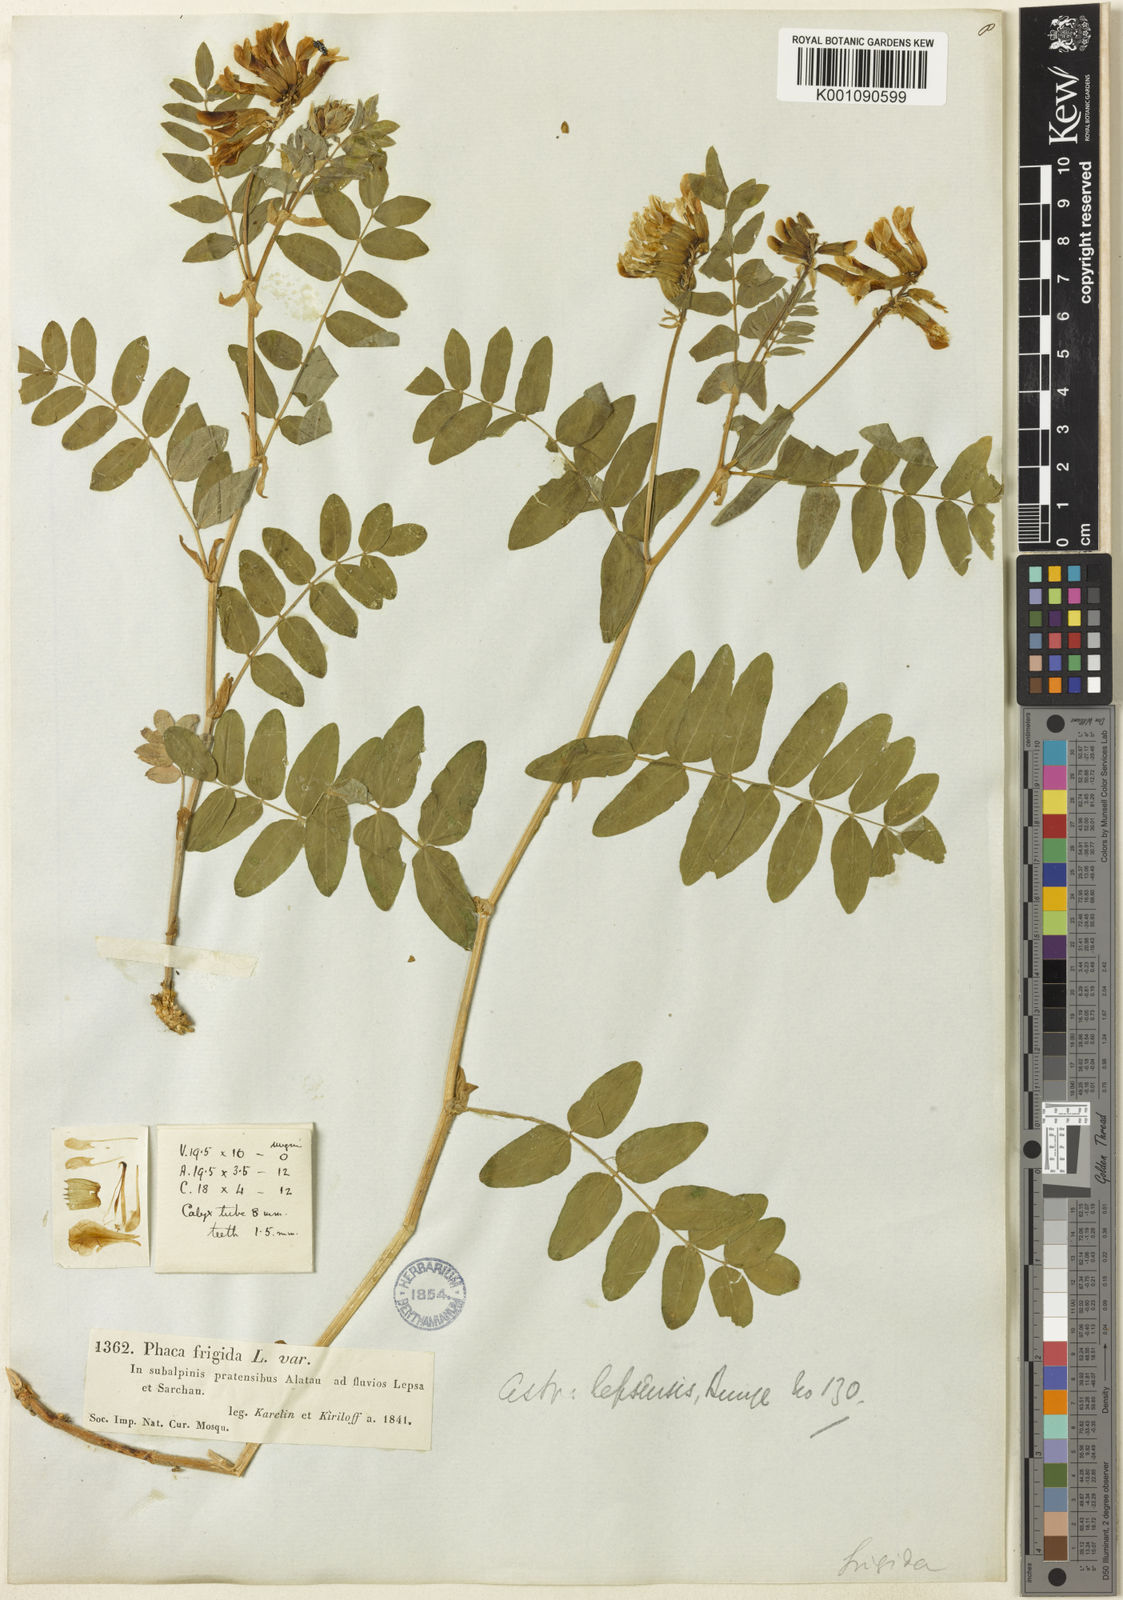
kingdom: Plantae
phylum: Tracheophyta
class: Magnoliopsida
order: Fabales
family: Fabaceae
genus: Astragalus
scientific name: Astragalus
